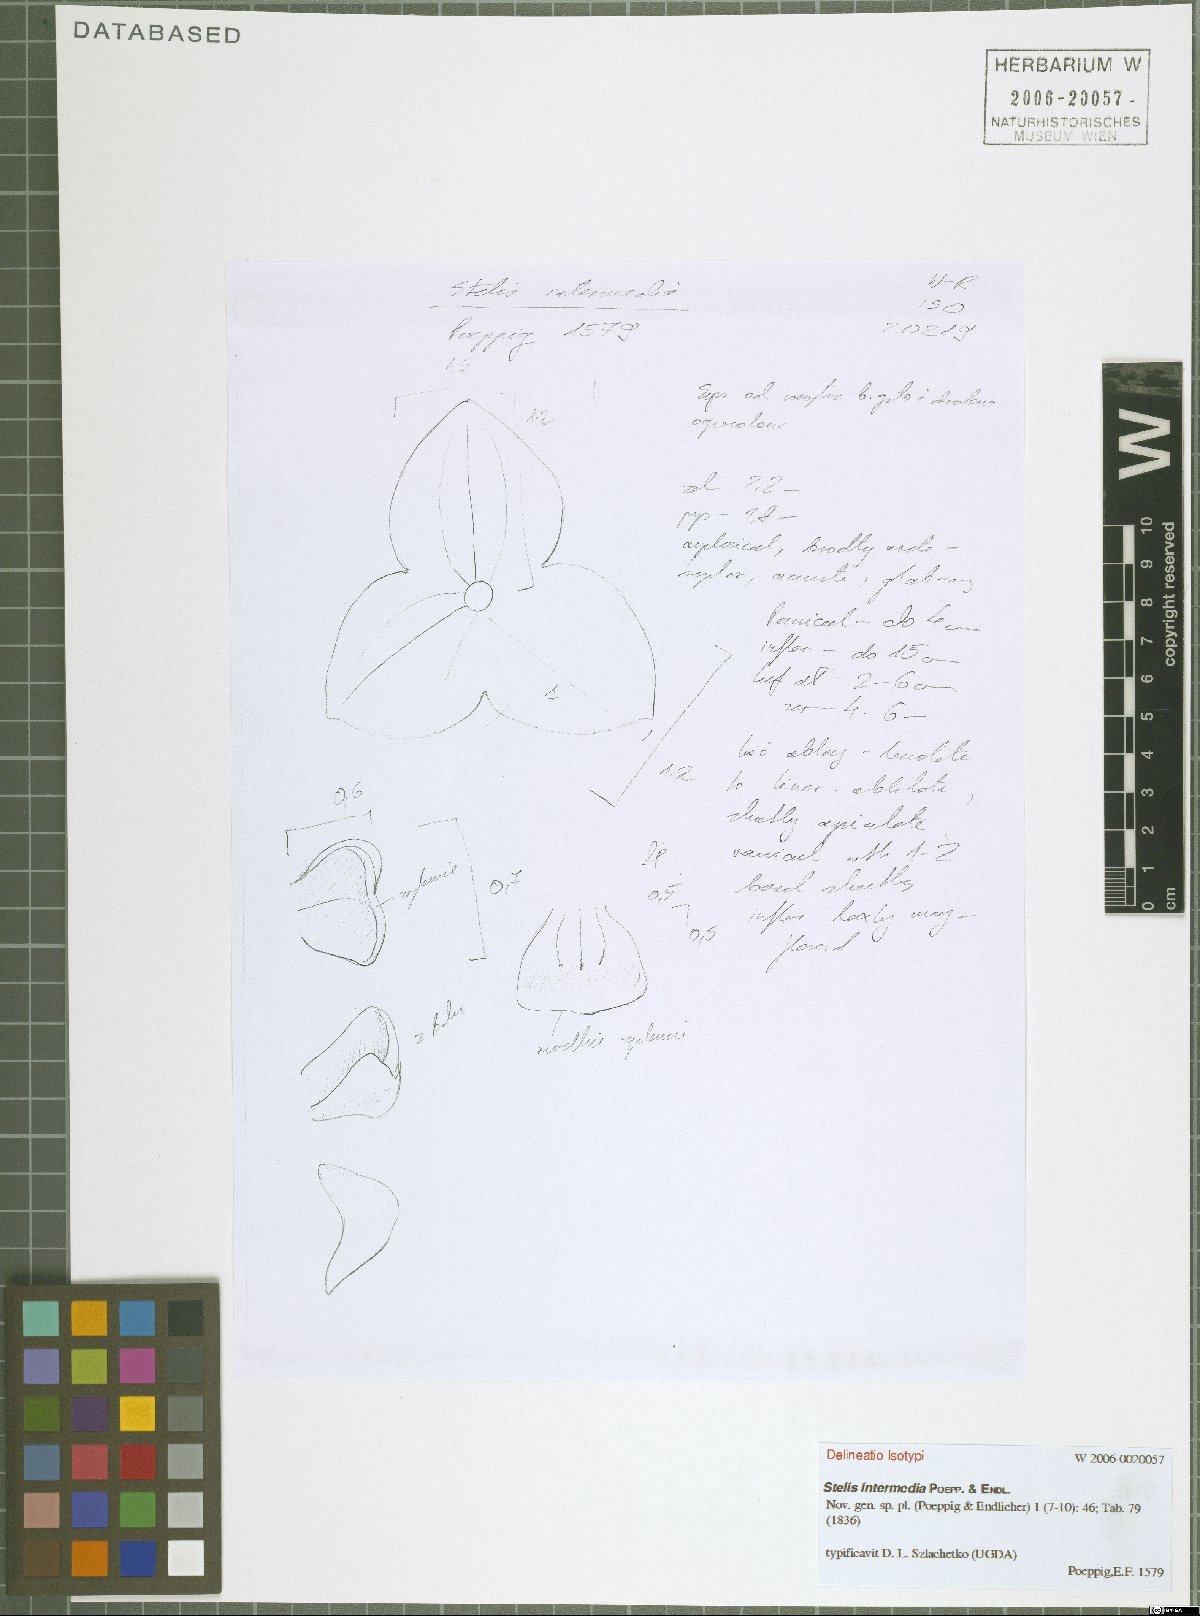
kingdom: Plantae
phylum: Tracheophyta
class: Liliopsida
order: Asparagales
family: Orchidaceae
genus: Stelis
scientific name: Stelis intermedia
